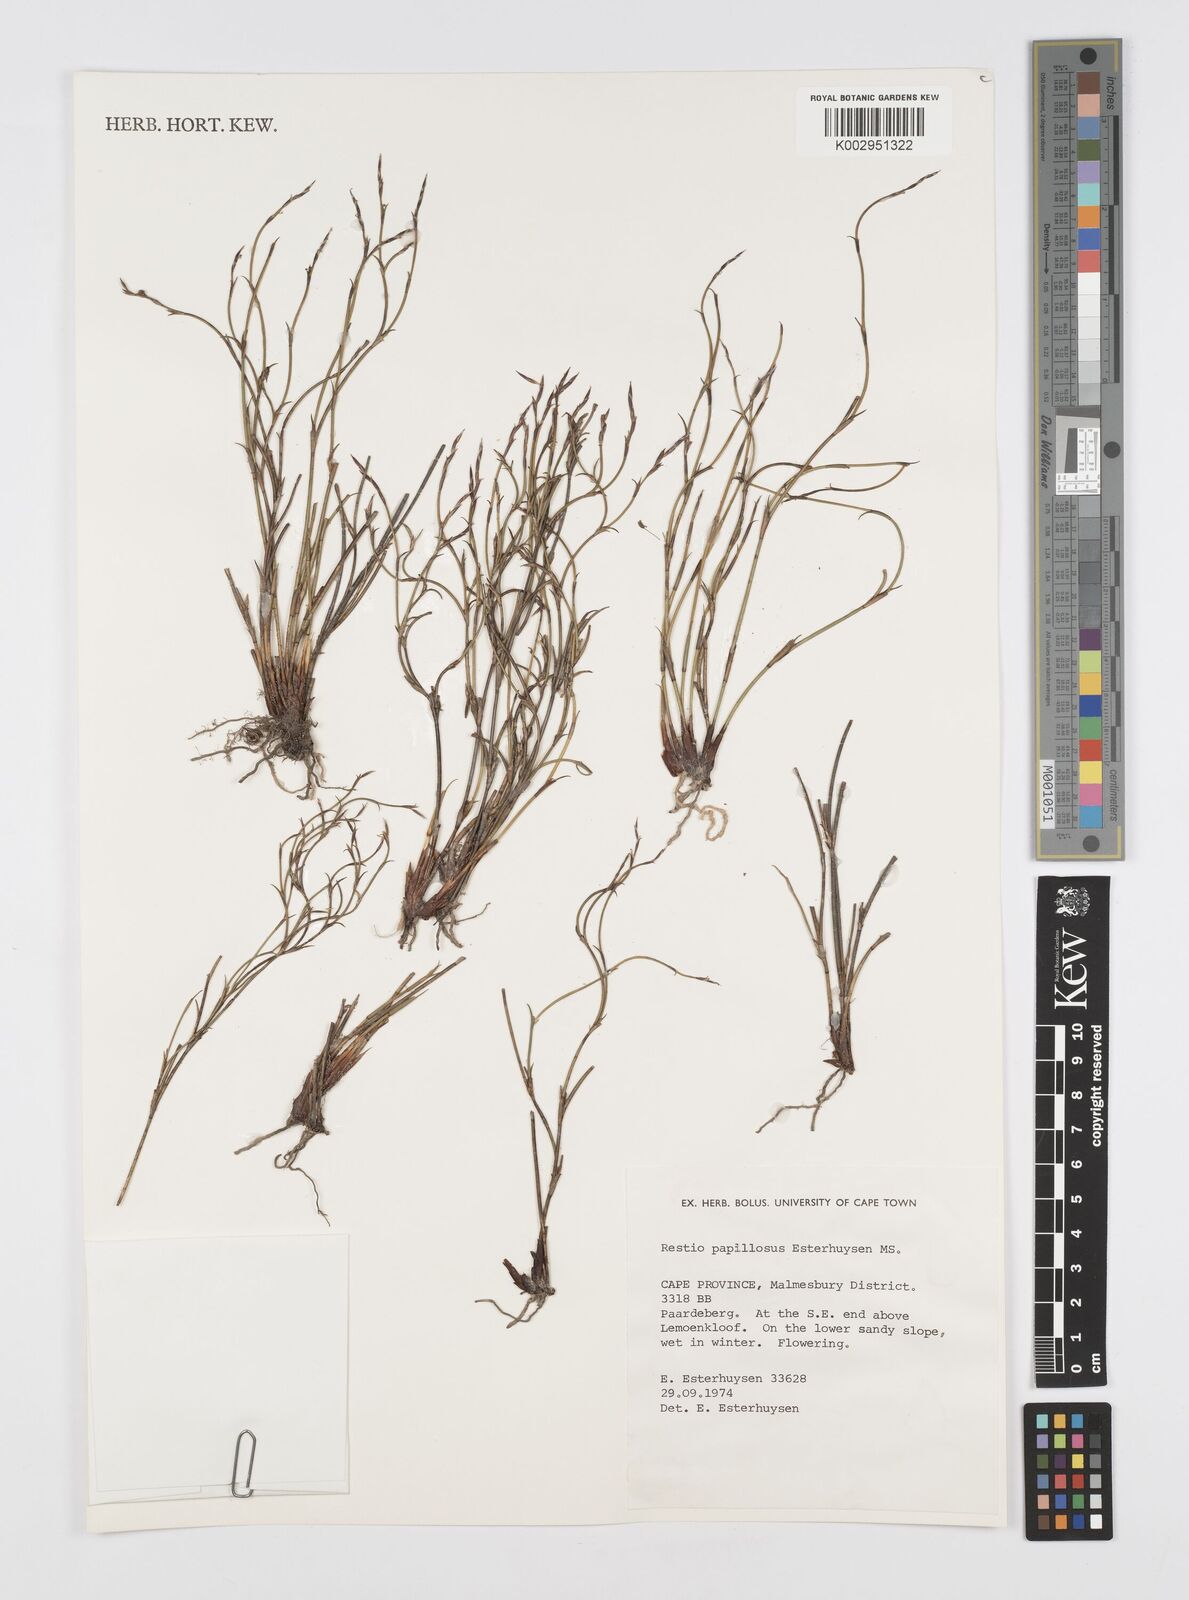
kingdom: Plantae
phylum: Tracheophyta
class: Liliopsida
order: Poales
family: Restionaceae
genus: Restio
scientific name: Restio papillosus
